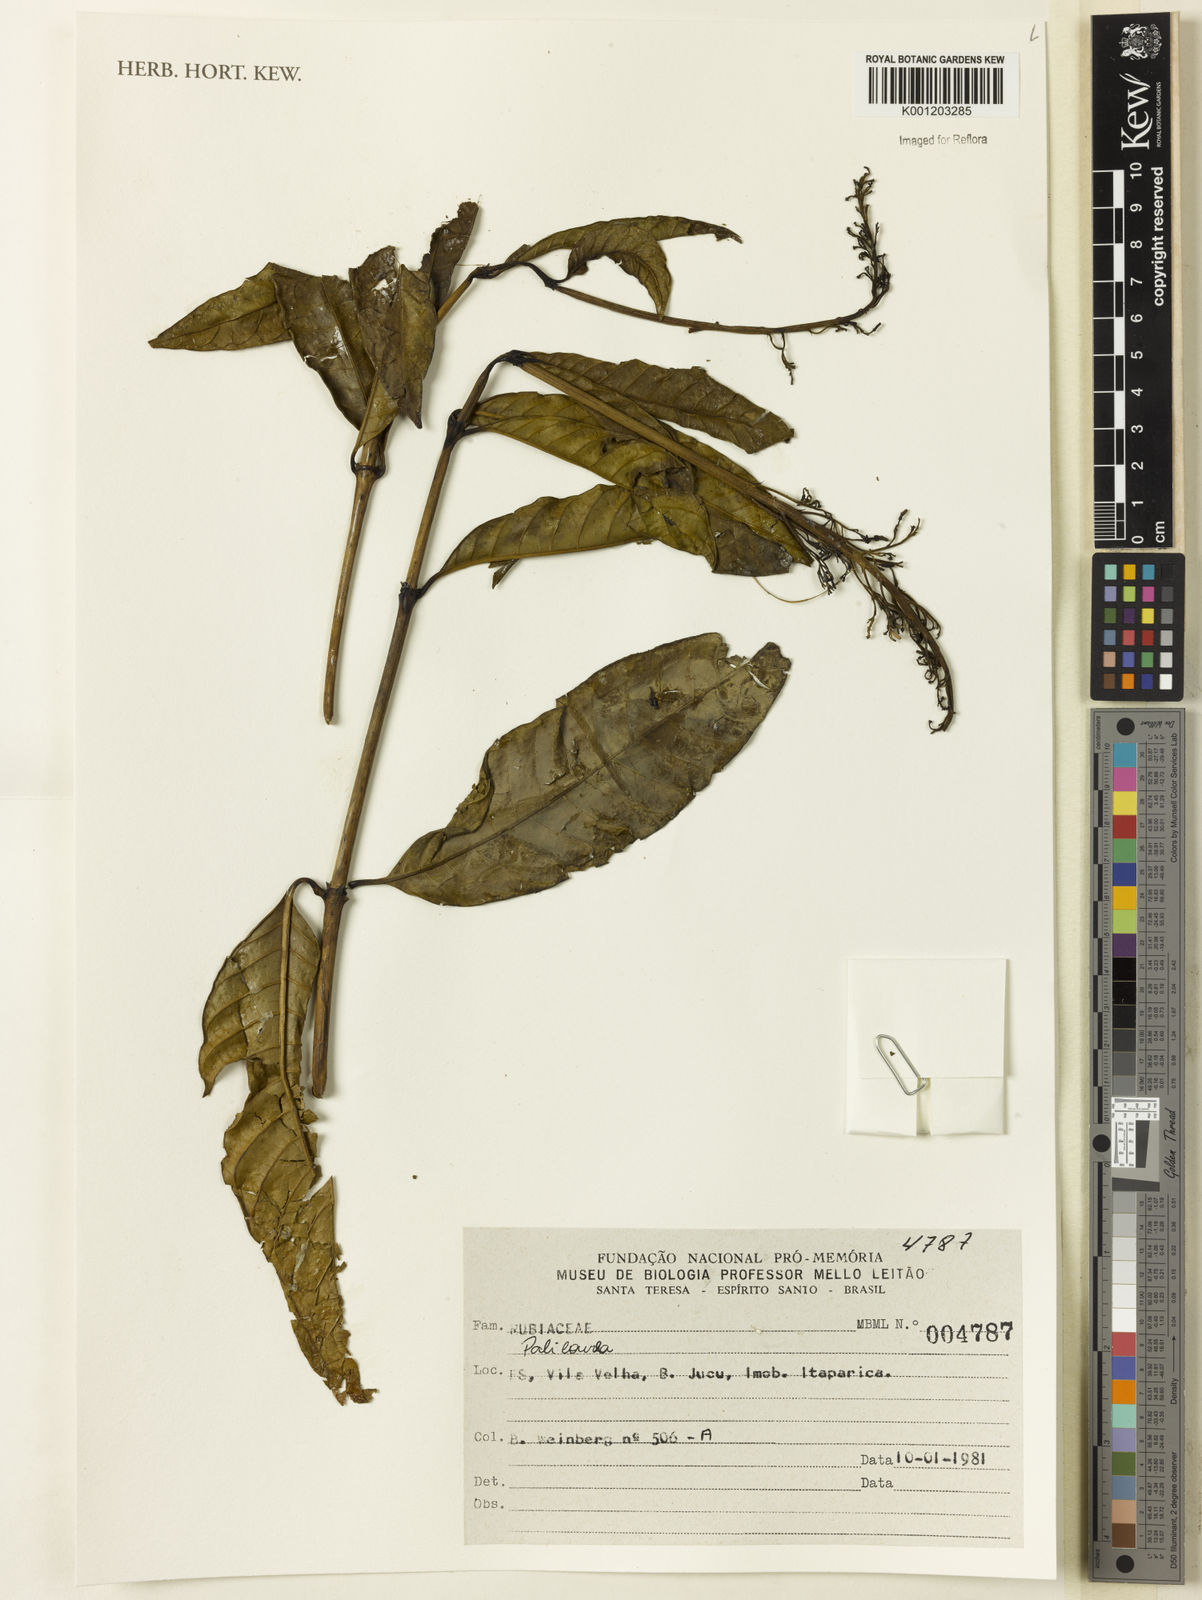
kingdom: Plantae
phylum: Tracheophyta
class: Magnoliopsida
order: Gentianales
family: Rubiaceae
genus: Palicourea
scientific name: Palicourea
